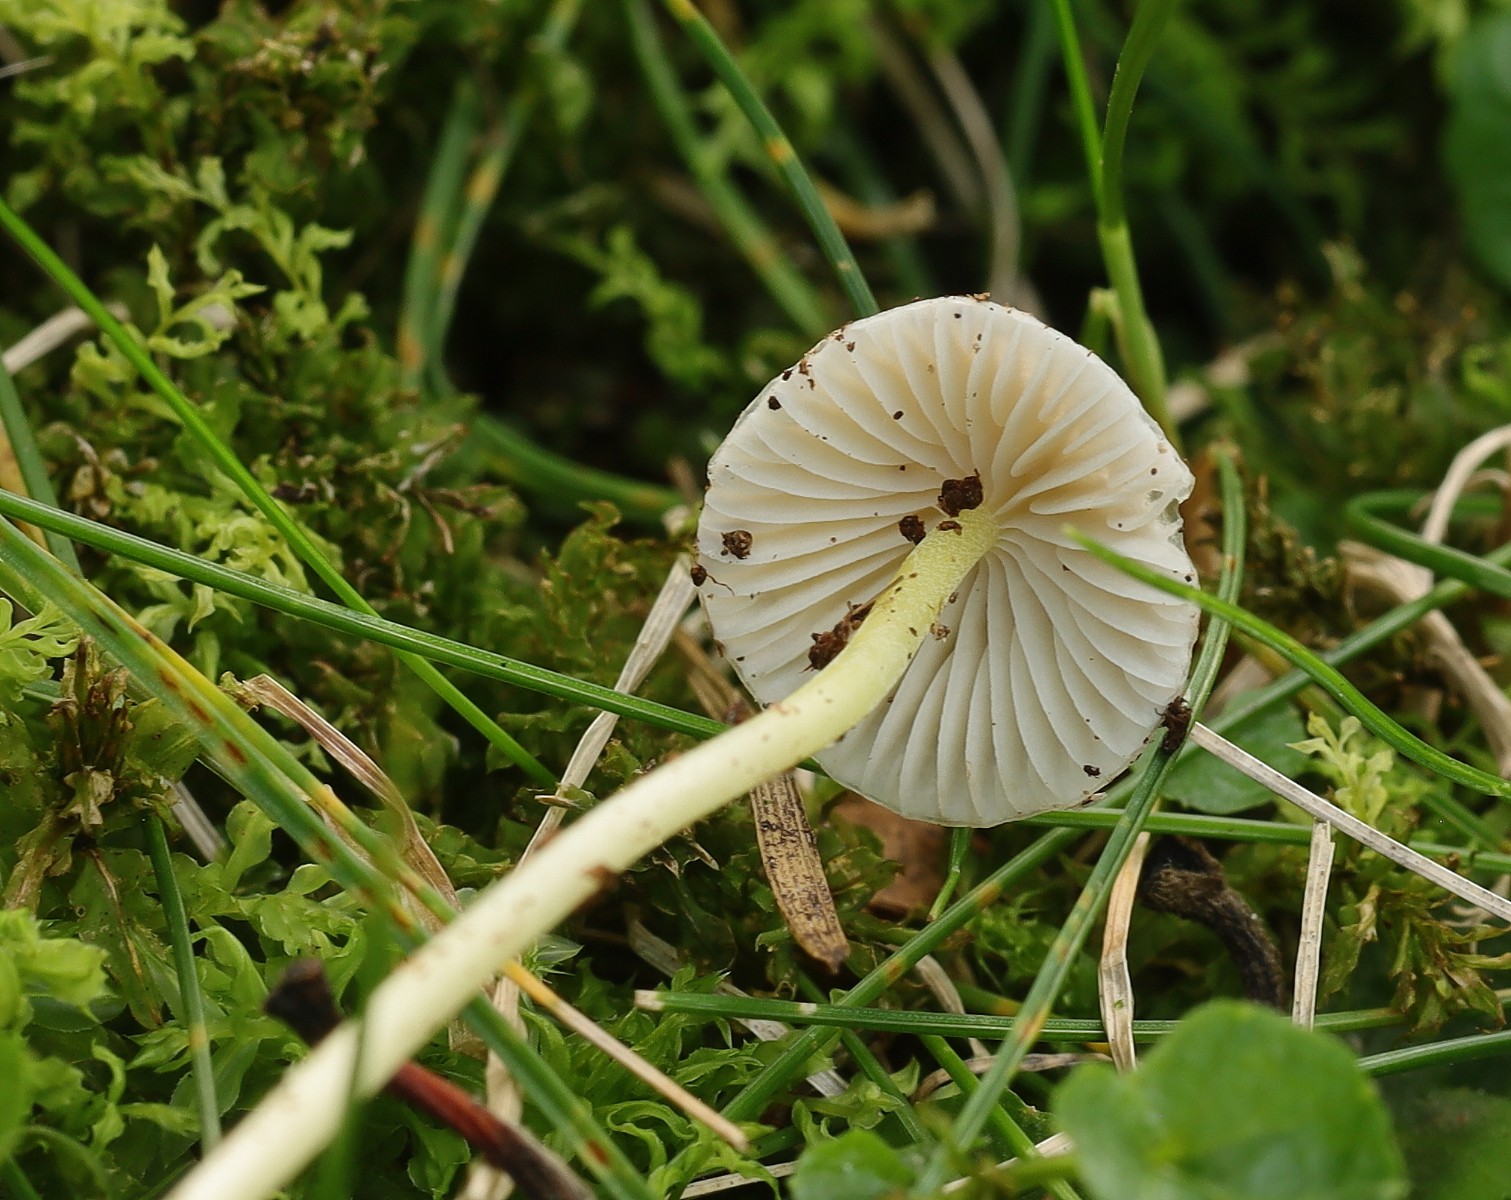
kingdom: Fungi
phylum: Basidiomycota
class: Agaricomycetes
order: Agaricales
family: Mycenaceae
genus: Mycena
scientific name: Mycena epipterygia
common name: gulstokket huesvamp
